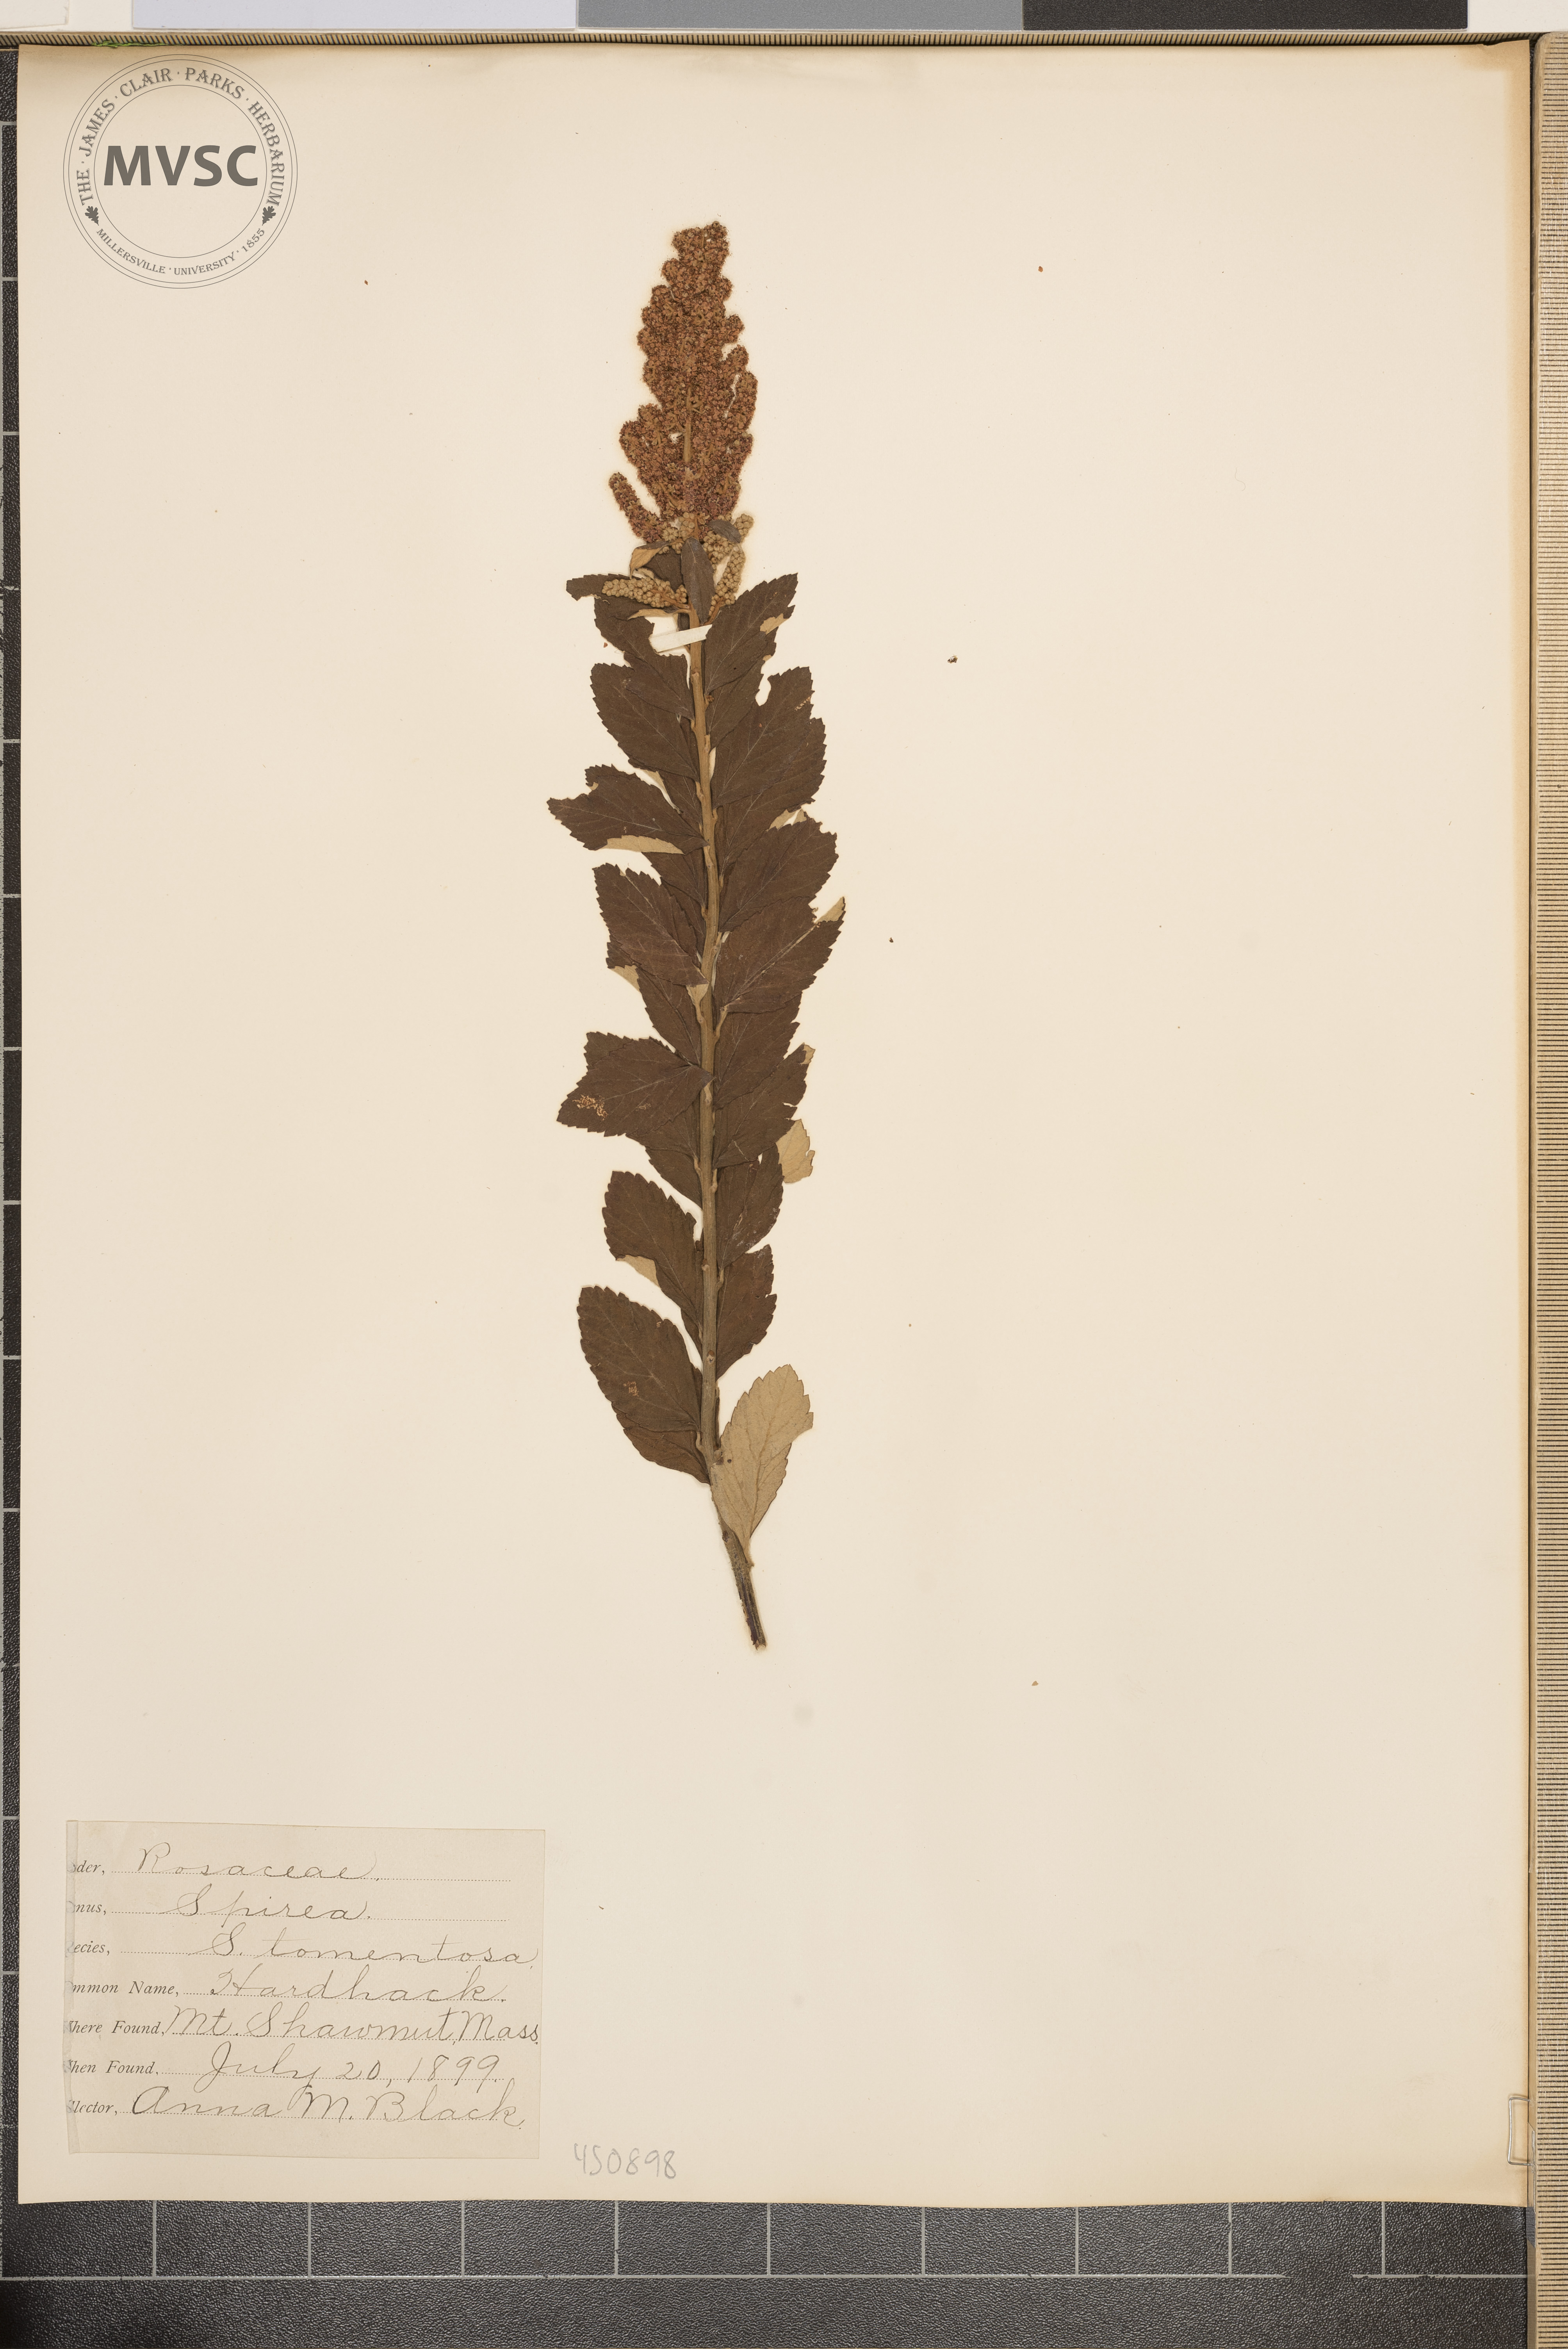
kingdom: Plantae
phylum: Tracheophyta
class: Magnoliopsida
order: Rosales
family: Rosaceae
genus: Spiraea
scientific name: Spiraea tomentosa
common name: Hardhack
